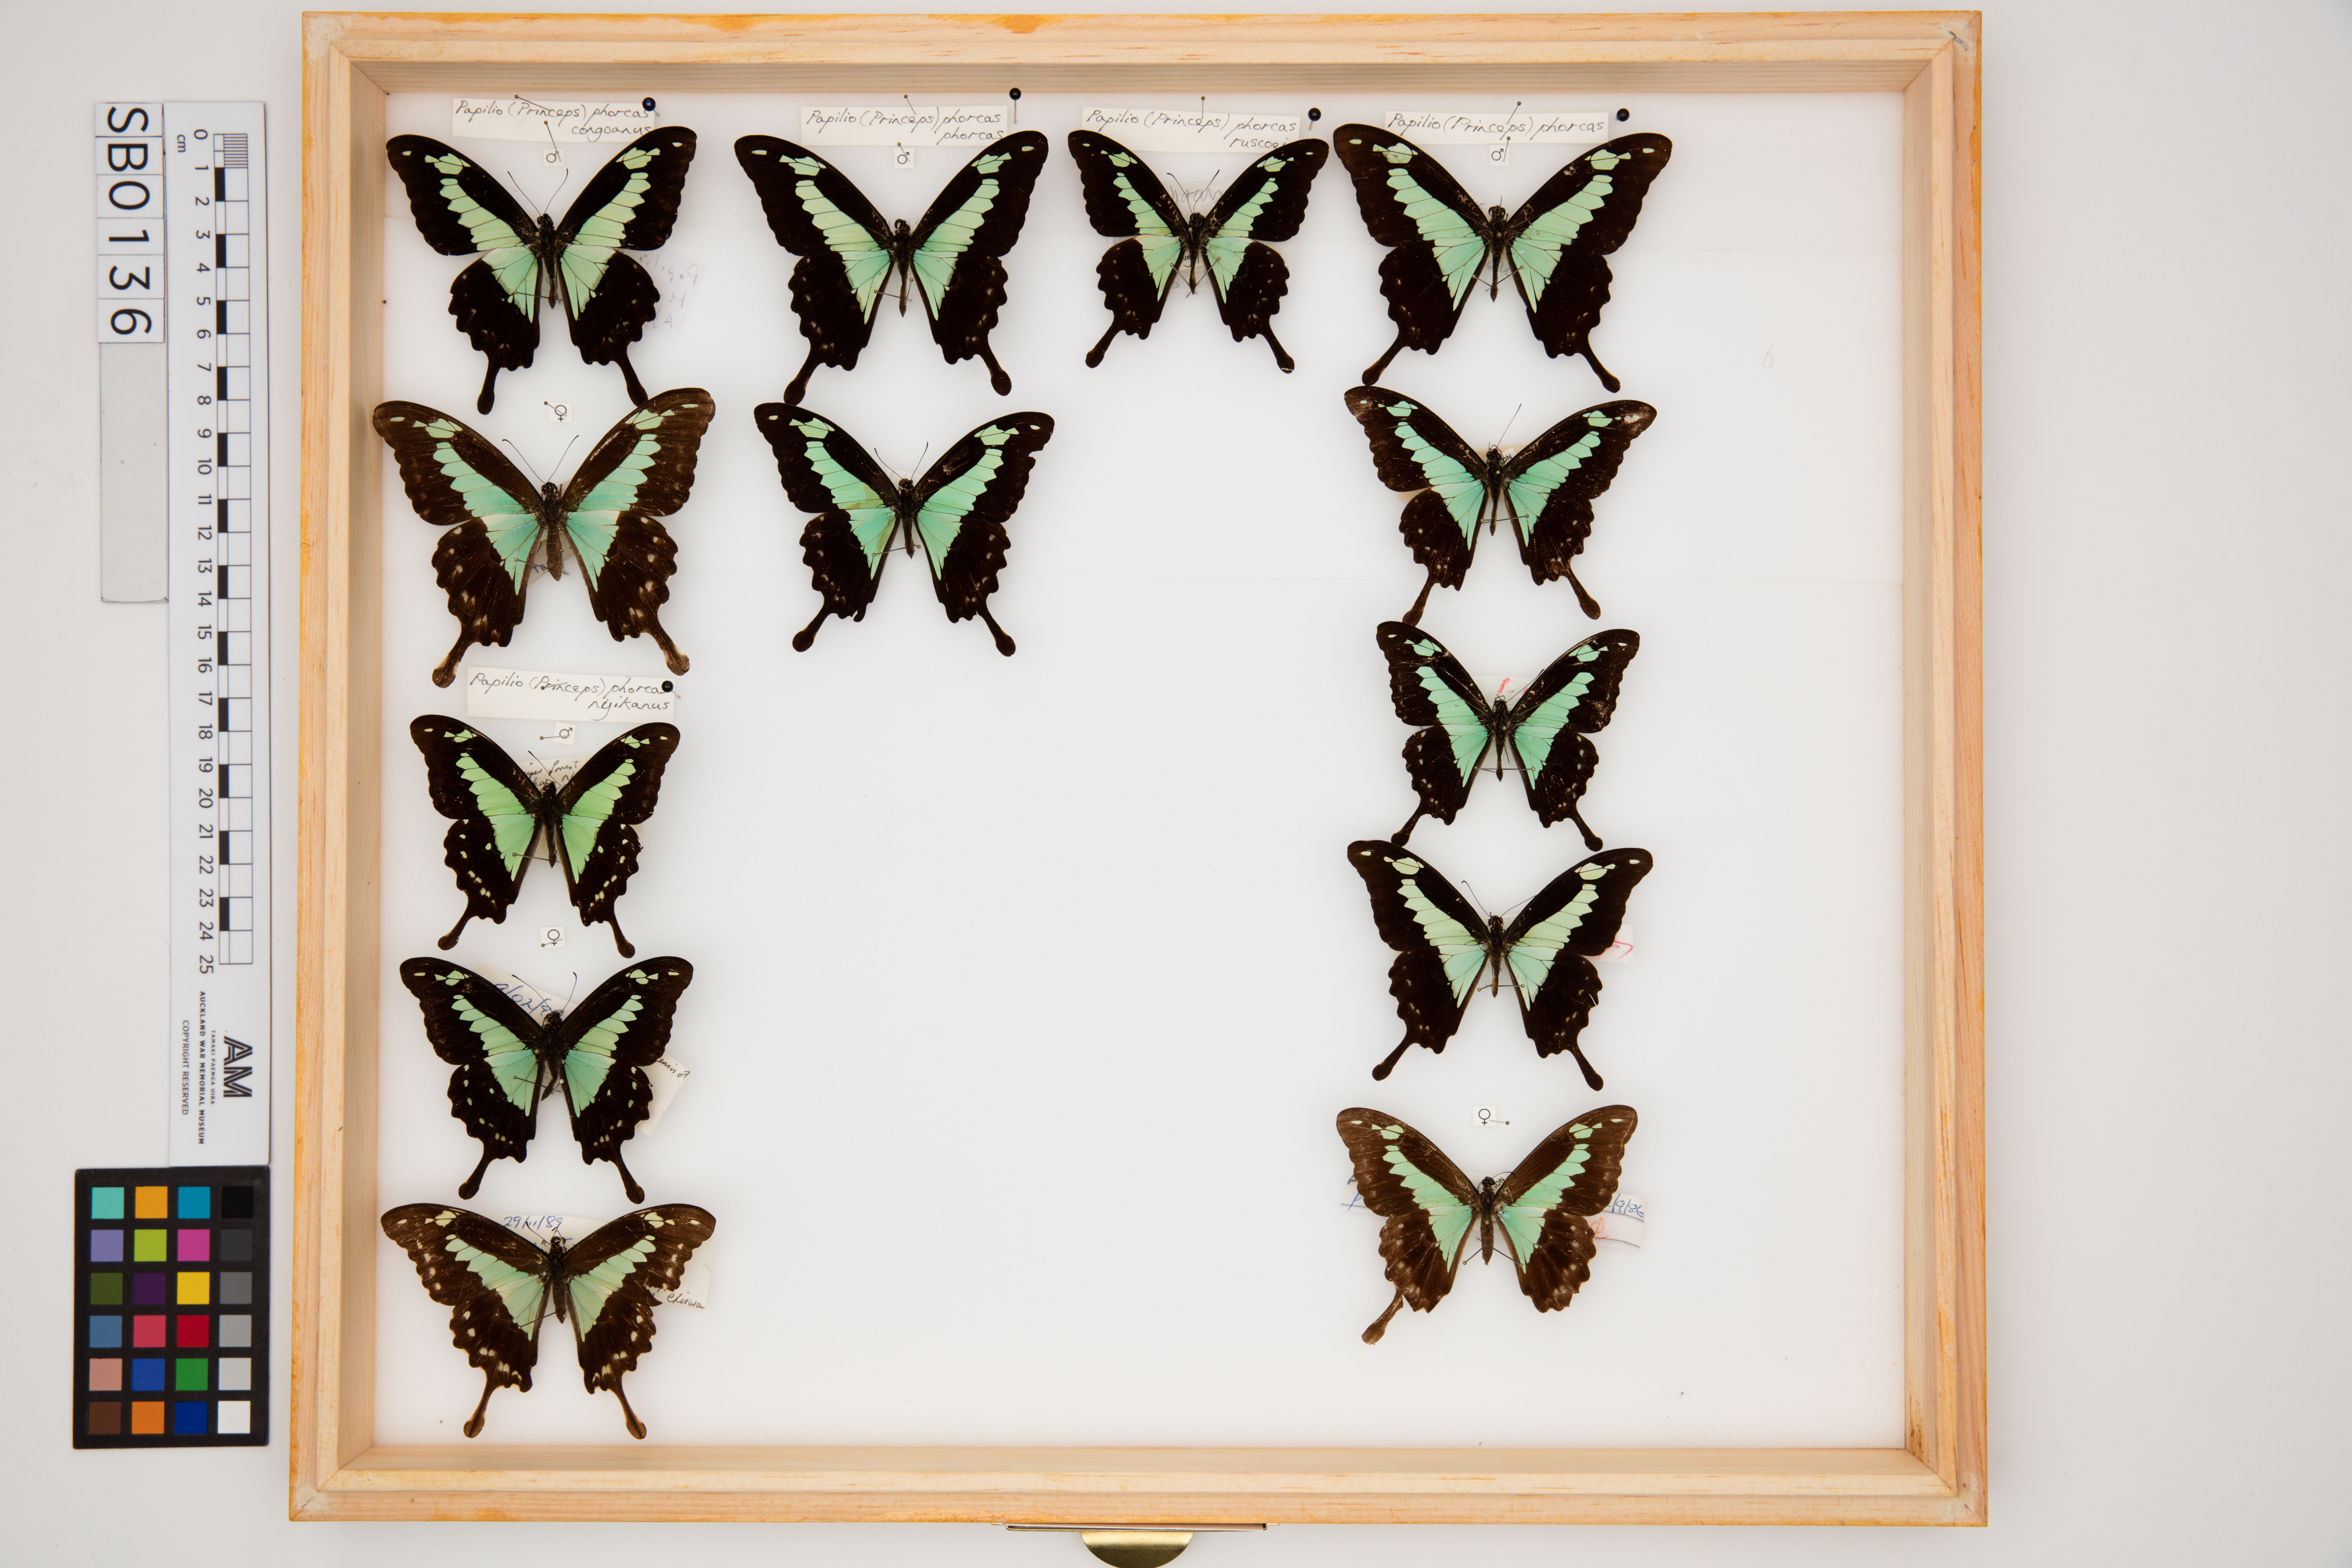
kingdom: Animalia
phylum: Arthropoda
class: Insecta
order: Lepidoptera
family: Papilionidae
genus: Papilio
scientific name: Papilio phorcas
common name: Apple-green swallowtail
